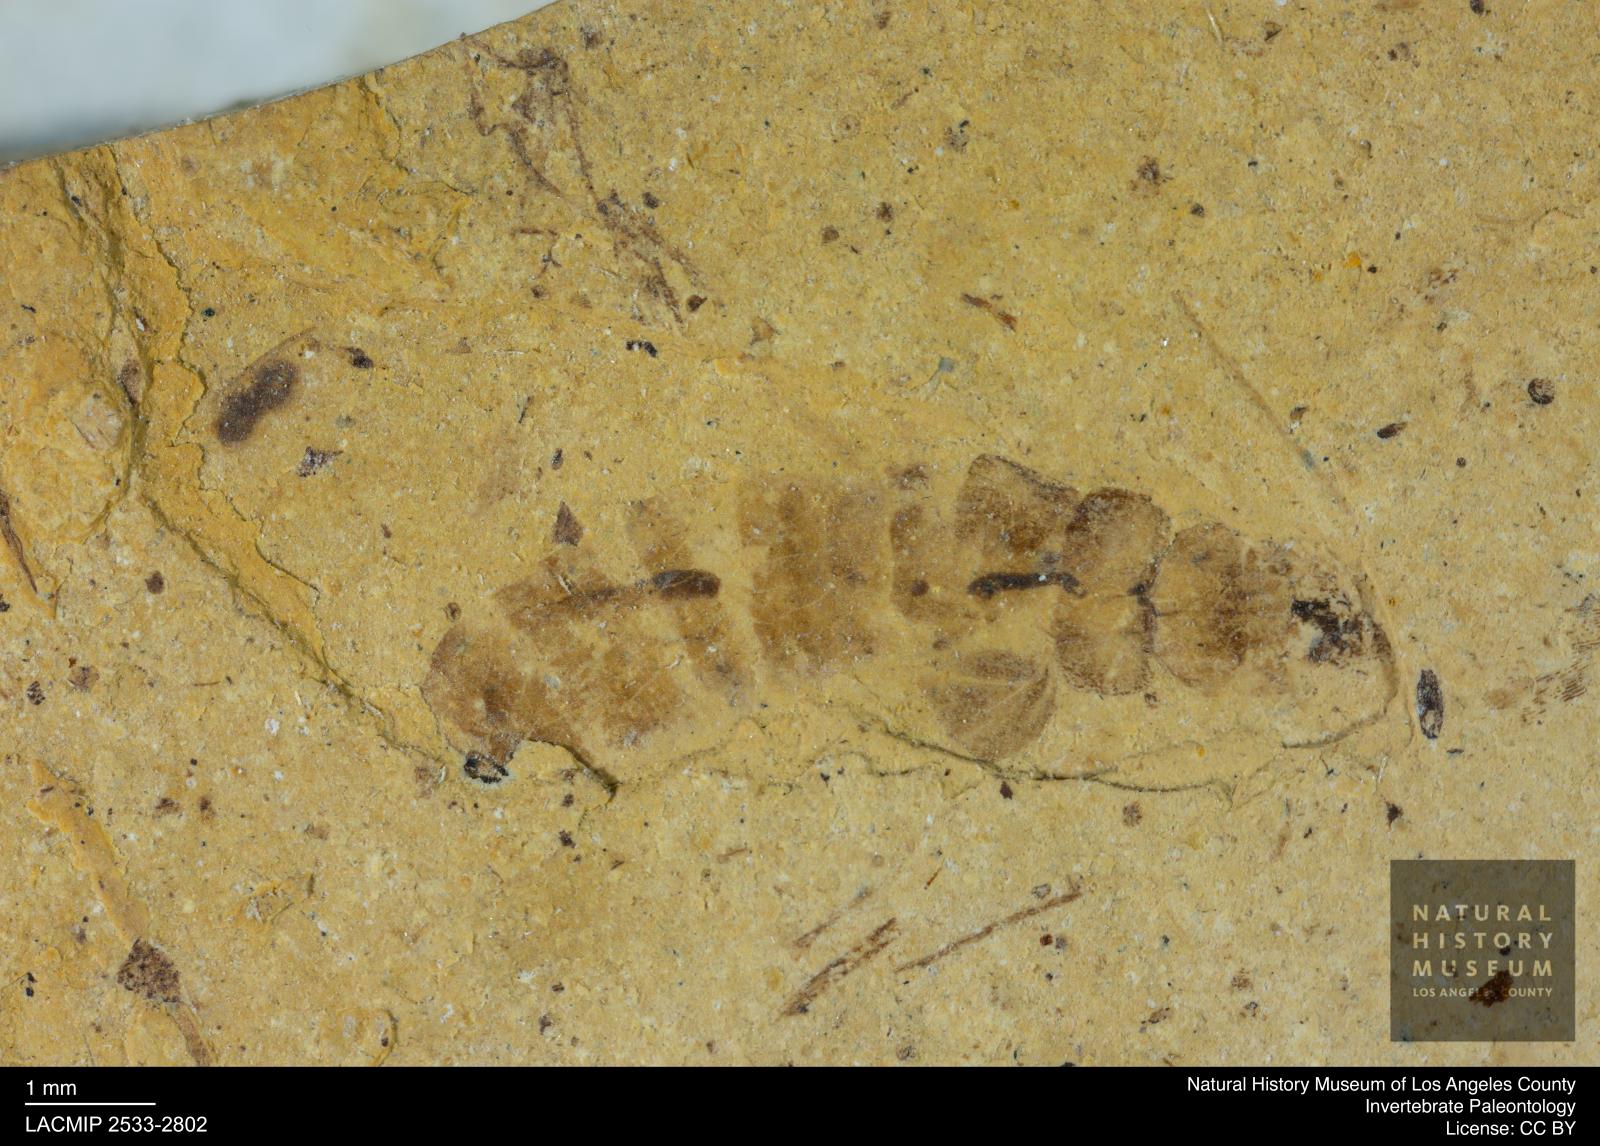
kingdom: Animalia
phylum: Arthropoda
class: Insecta
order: Blattodea
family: Kalotermitidae
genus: Kalotermes
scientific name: Kalotermes rhenanus
